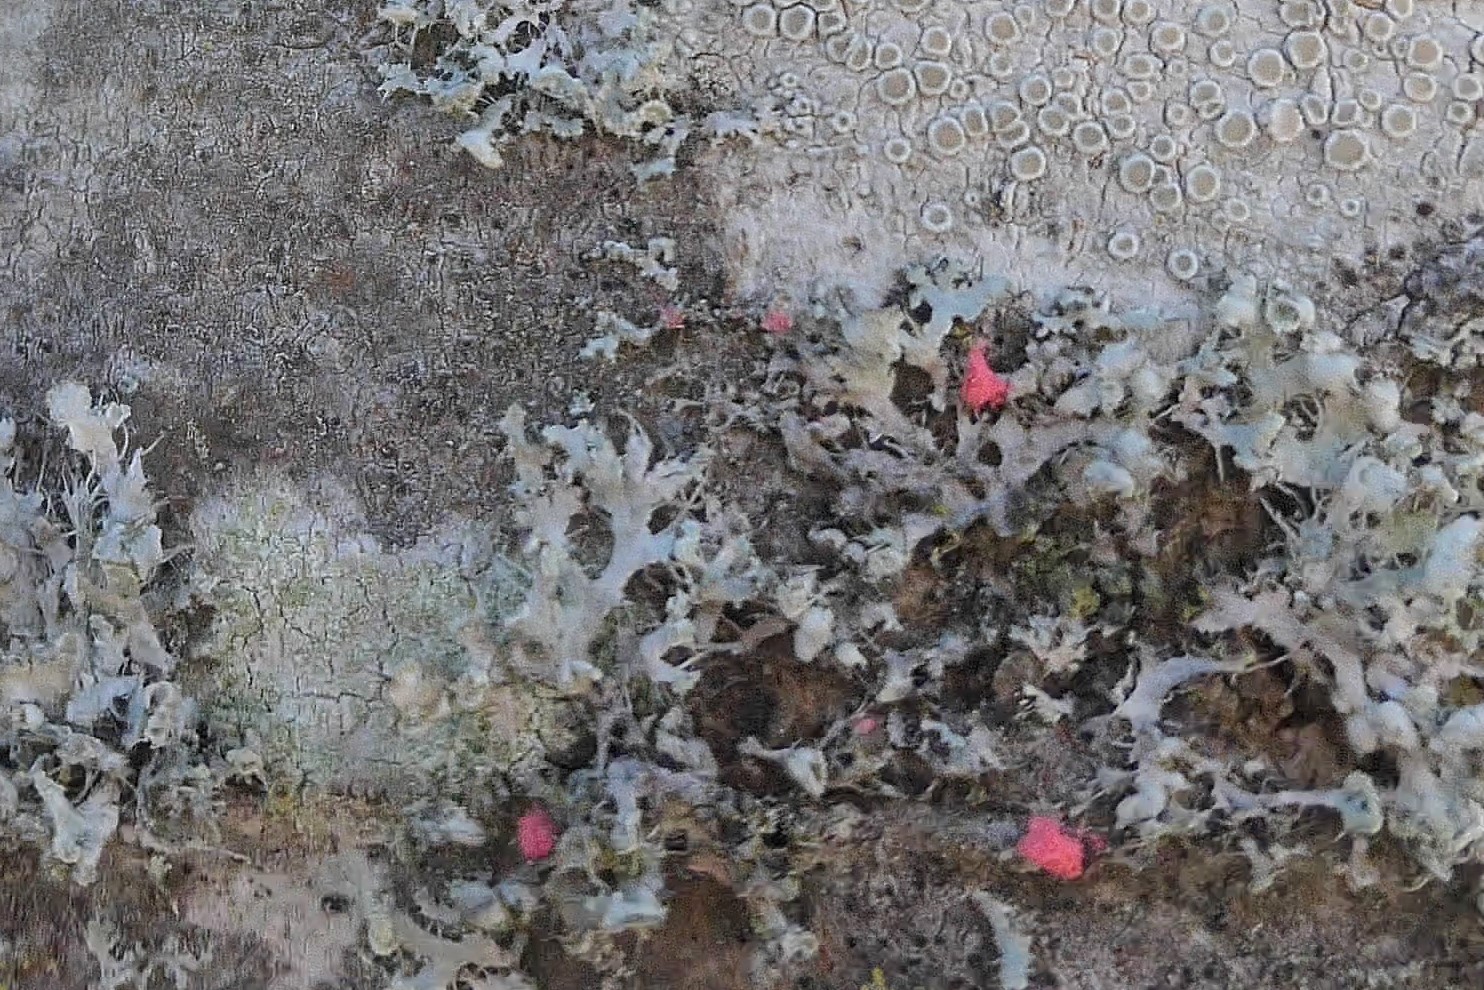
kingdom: Fungi
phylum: Ascomycota
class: Sordariomycetes
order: Hypocreales
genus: Illosporiopsis
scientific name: Illosporiopsis christiansenii
